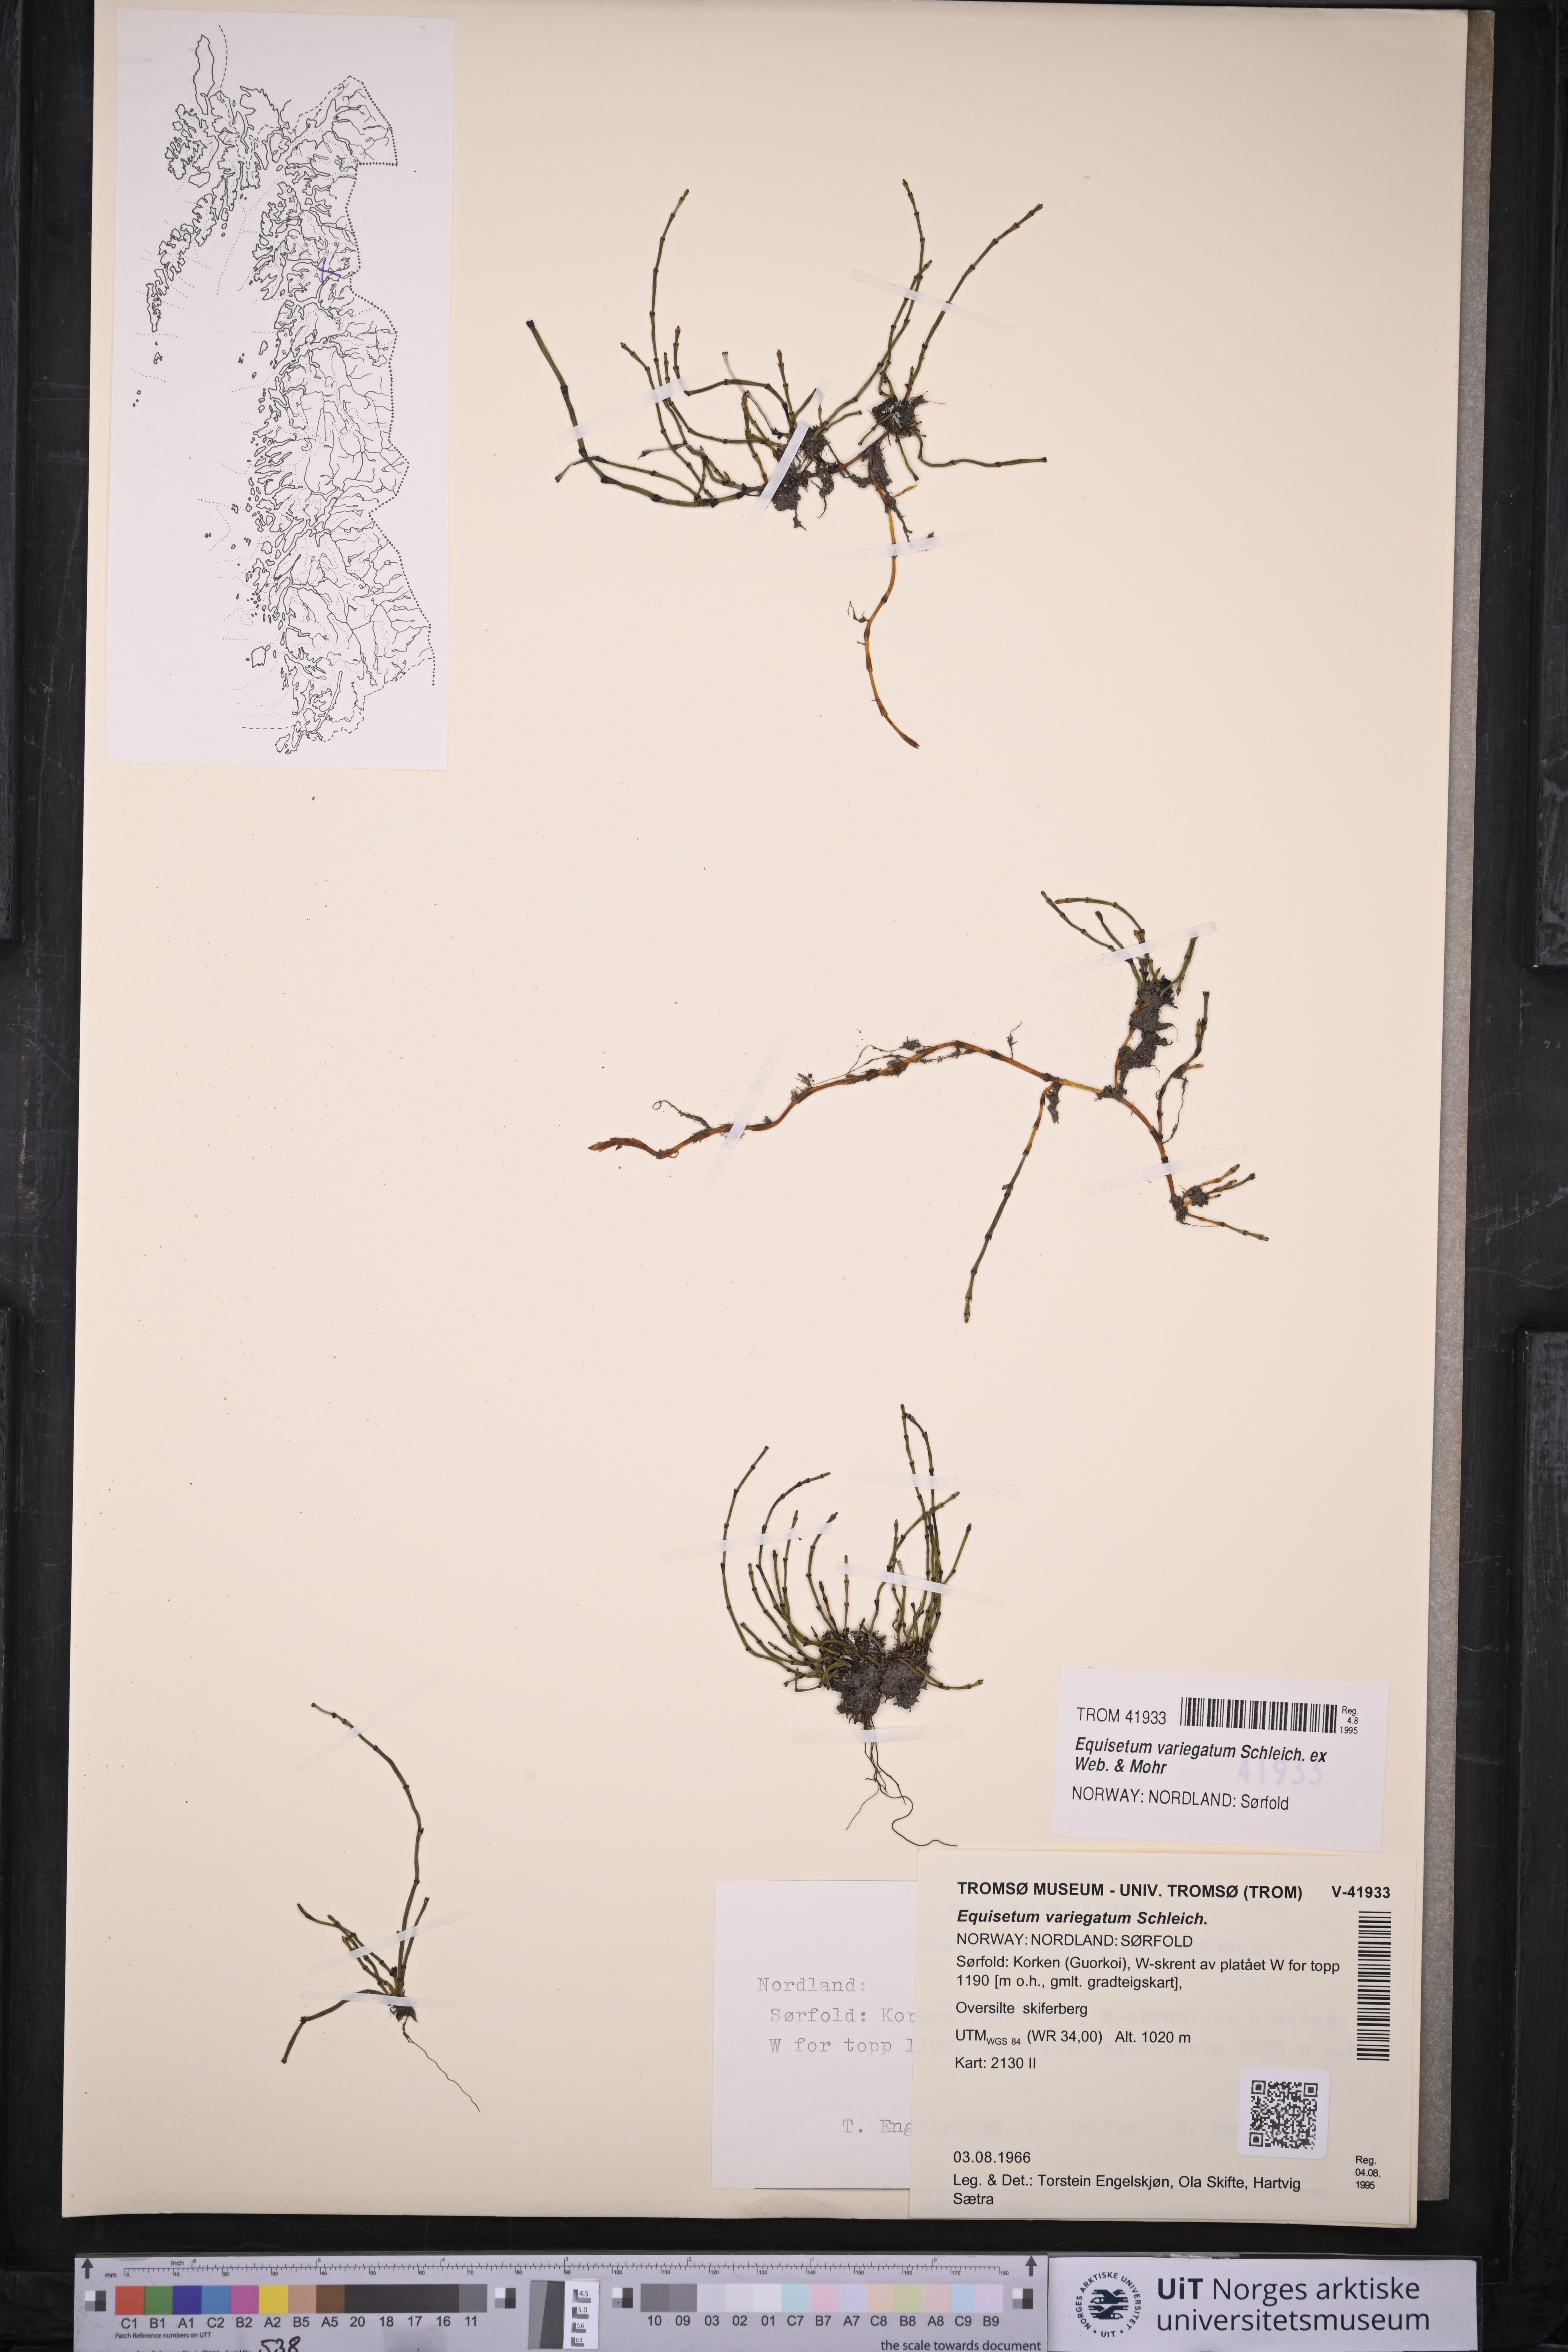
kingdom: Plantae
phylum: Tracheophyta
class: Polypodiopsida
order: Equisetales
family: Equisetaceae
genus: Equisetum
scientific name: Equisetum variegatum
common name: Variegated horsetail
